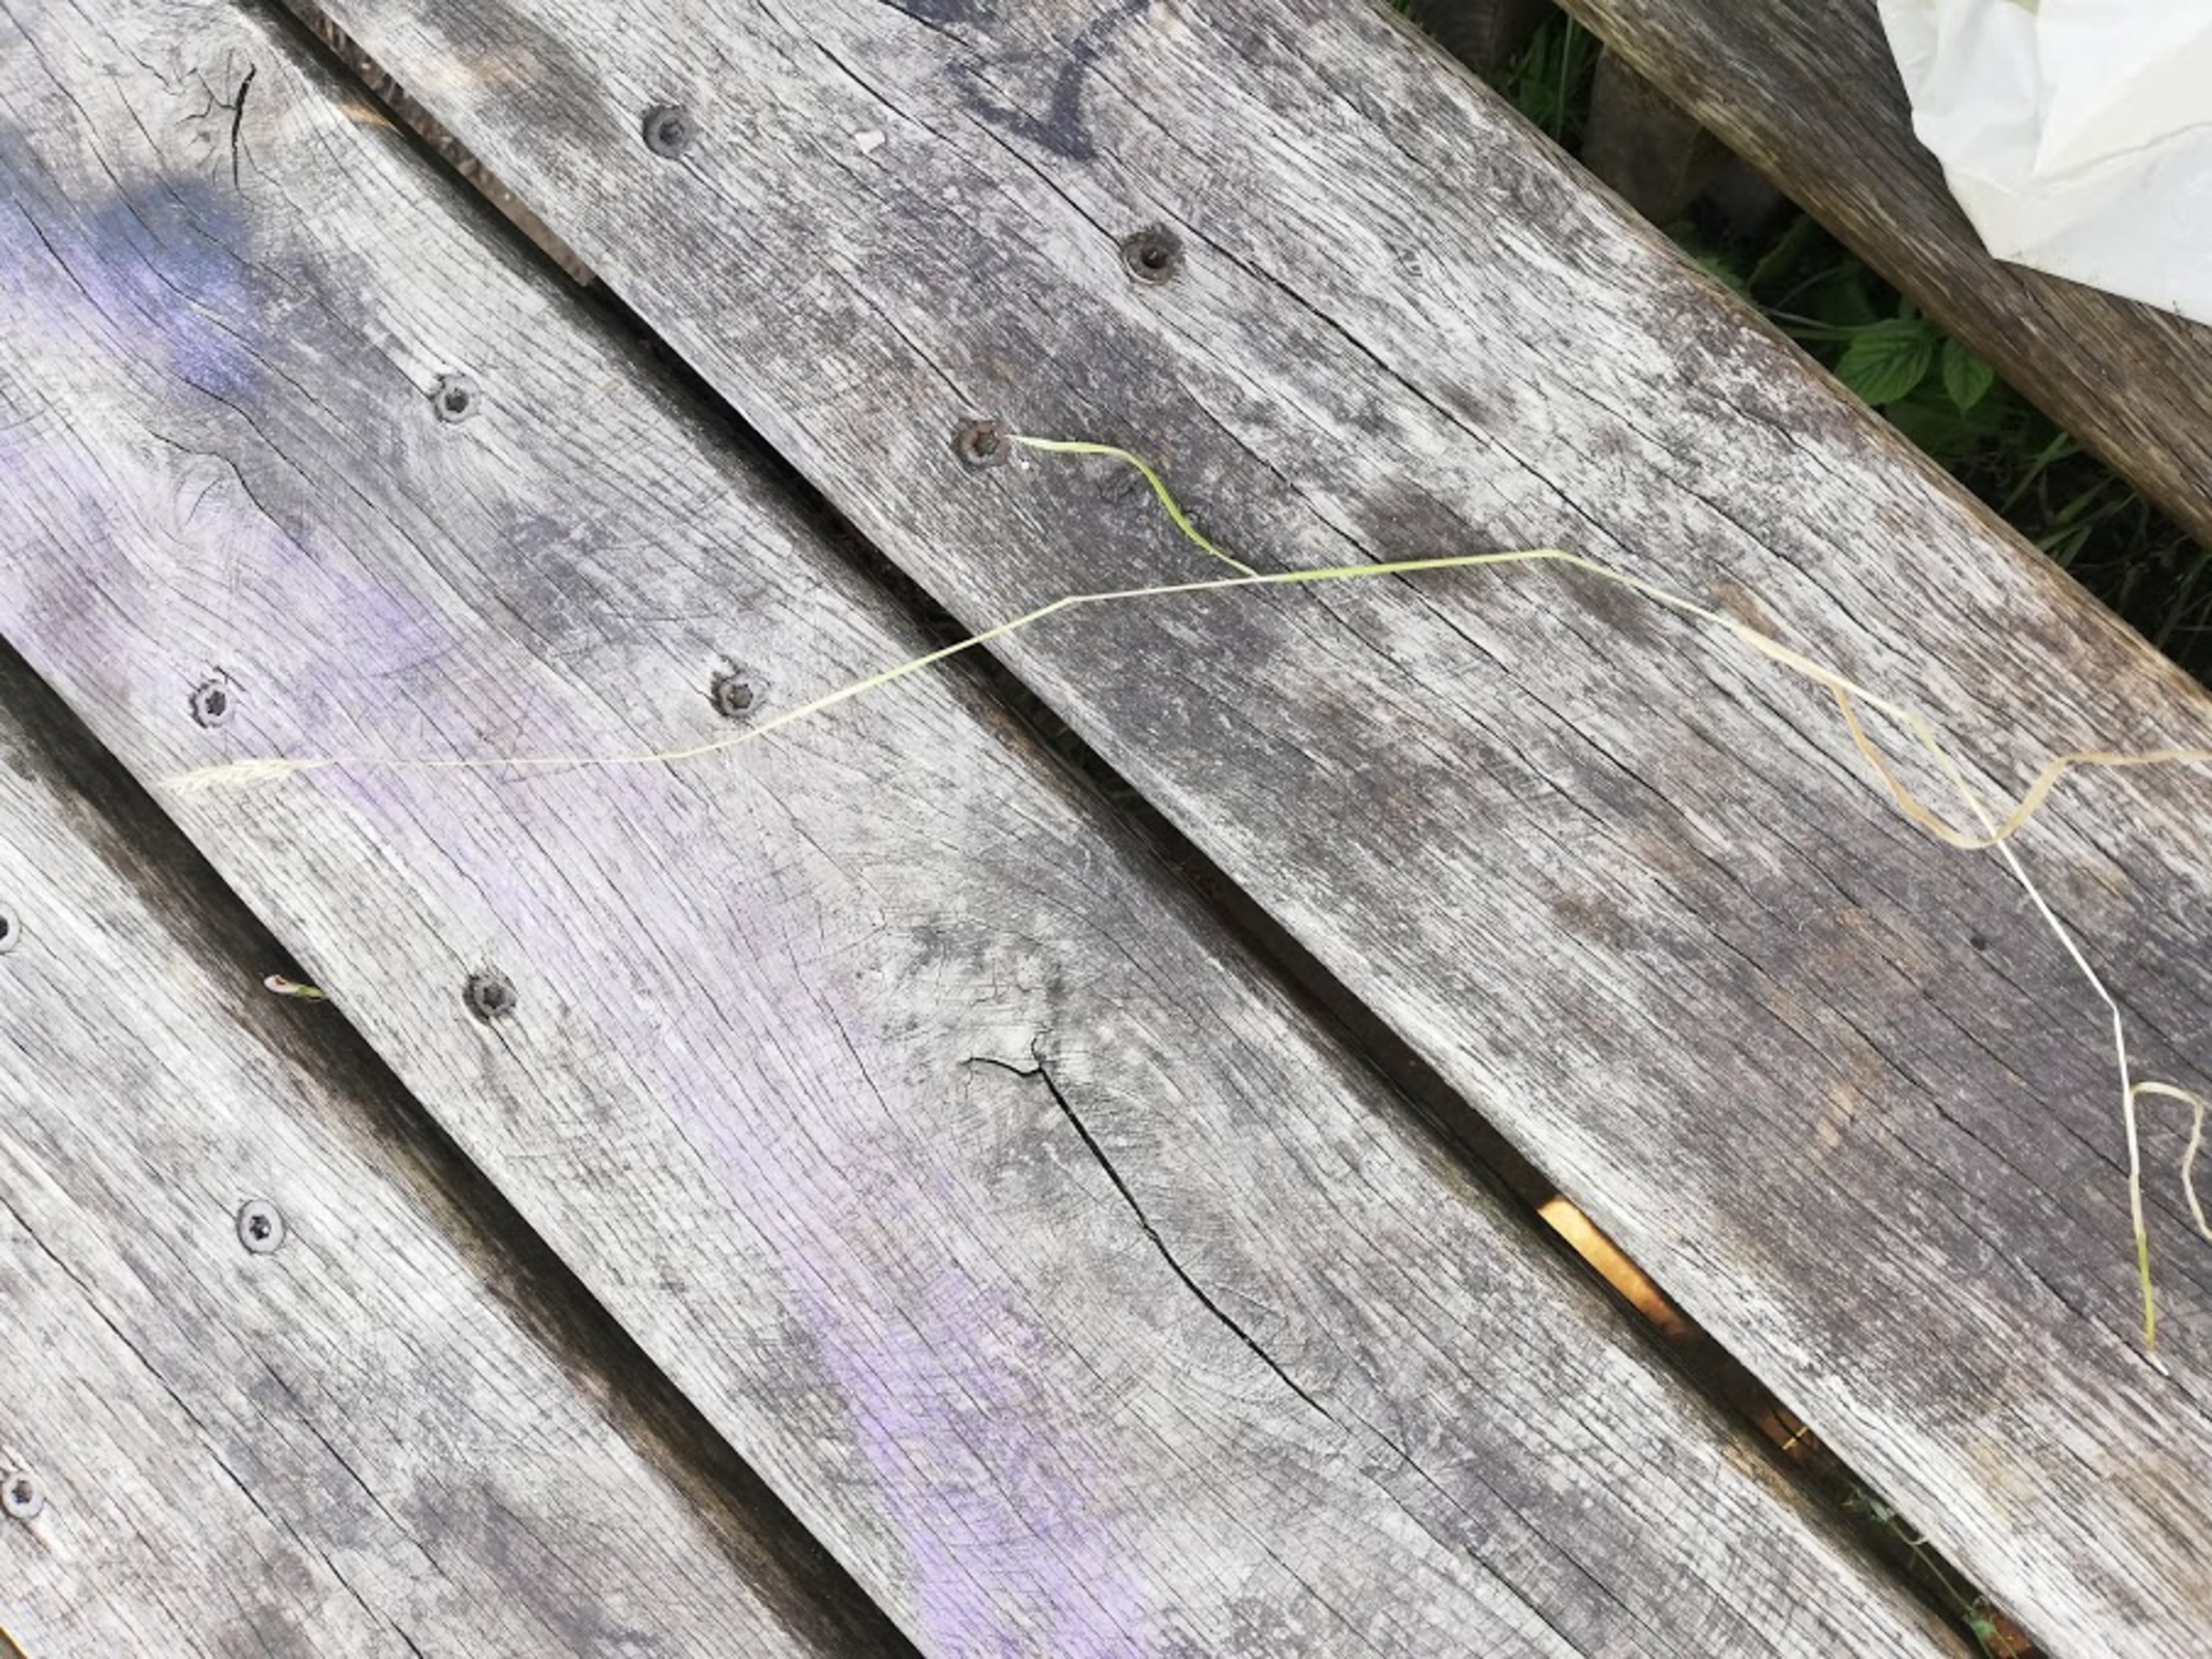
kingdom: Plantae
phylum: Tracheophyta
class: Liliopsida
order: Poales
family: Poaceae
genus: Holcus
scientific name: Holcus lanatus
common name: Fløjlsgræs
